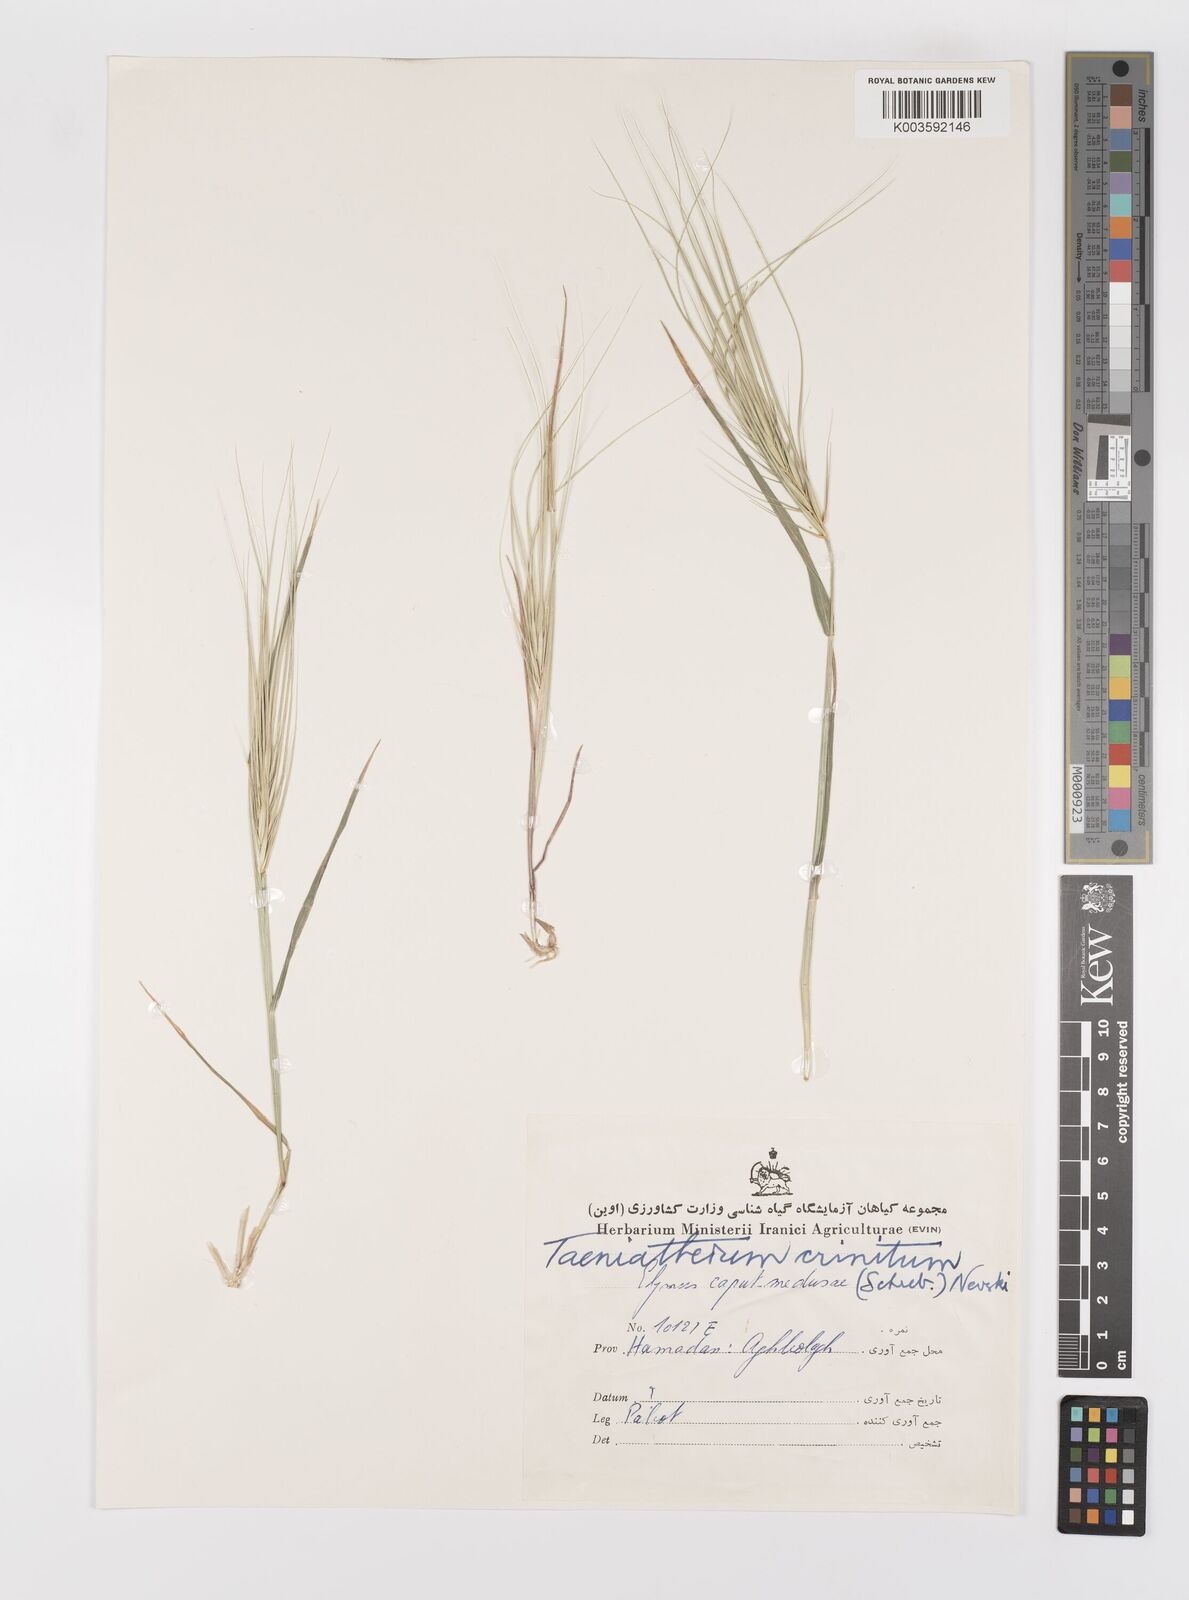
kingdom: Plantae
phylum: Tracheophyta
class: Liliopsida
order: Poales
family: Poaceae
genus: Taeniatherum
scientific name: Taeniatherum caput-medusae
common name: Medusahead
